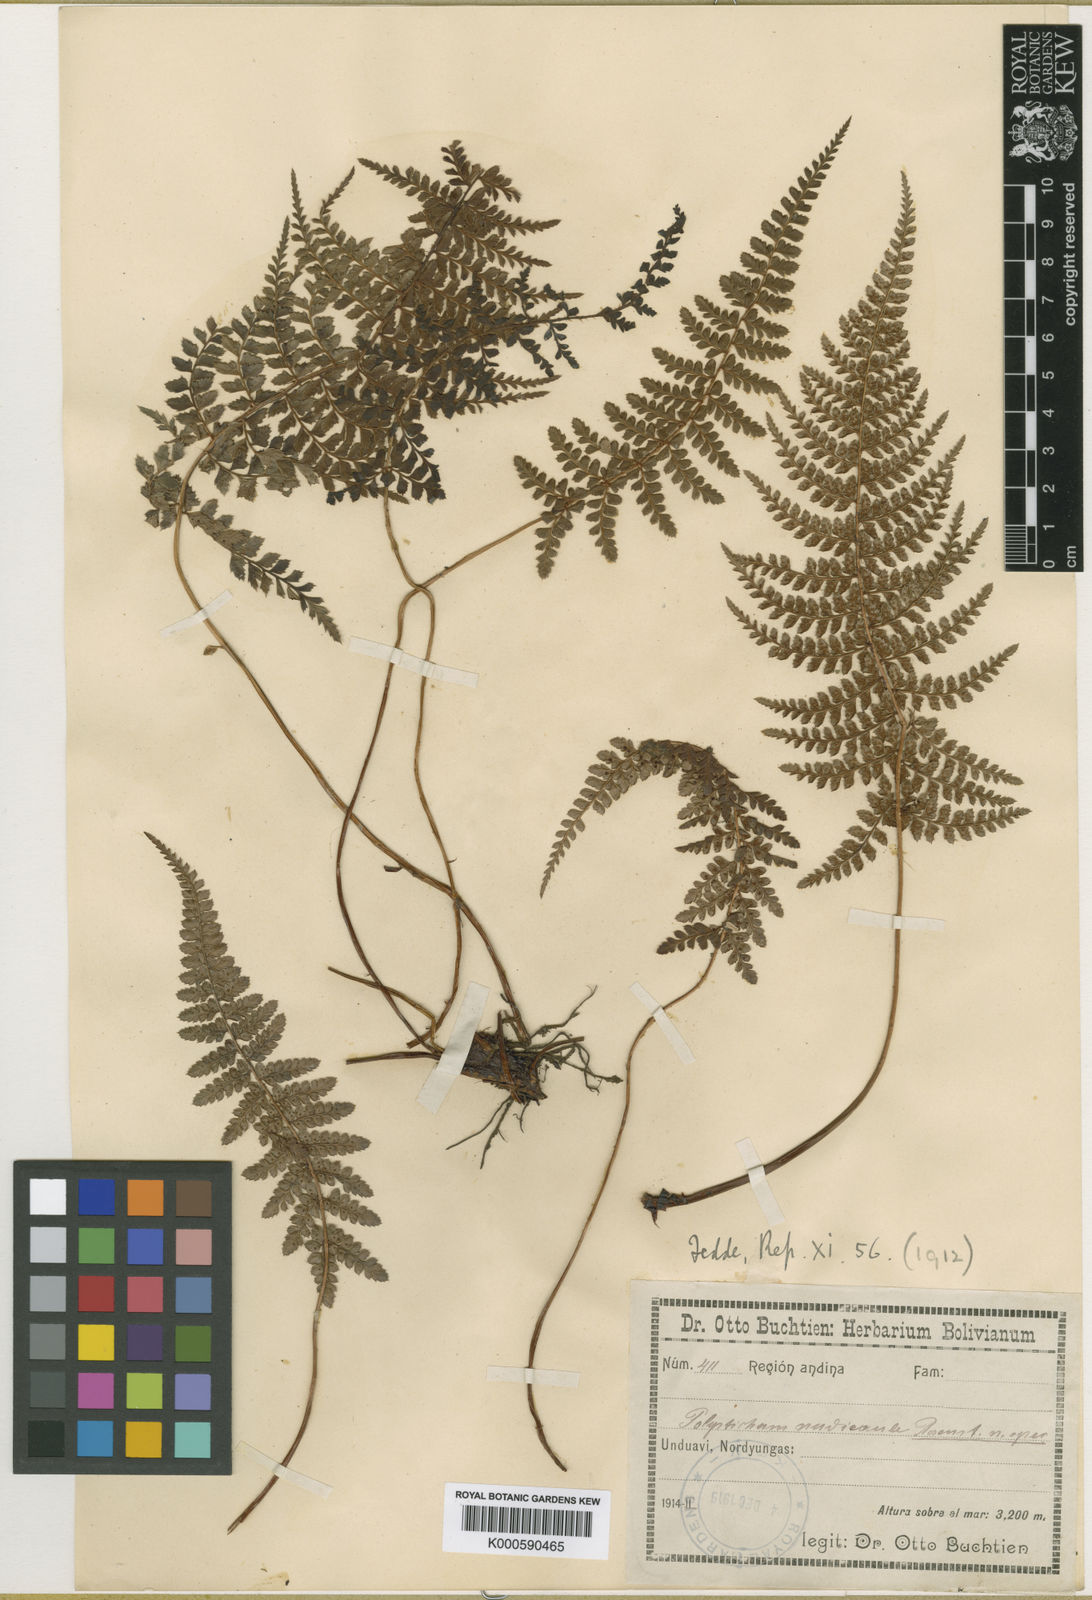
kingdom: Plantae
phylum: Tracheophyta
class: Polypodiopsida
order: Polypodiales
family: Dryopteridaceae
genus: Polystichum
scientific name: Polystichum nudicaule
